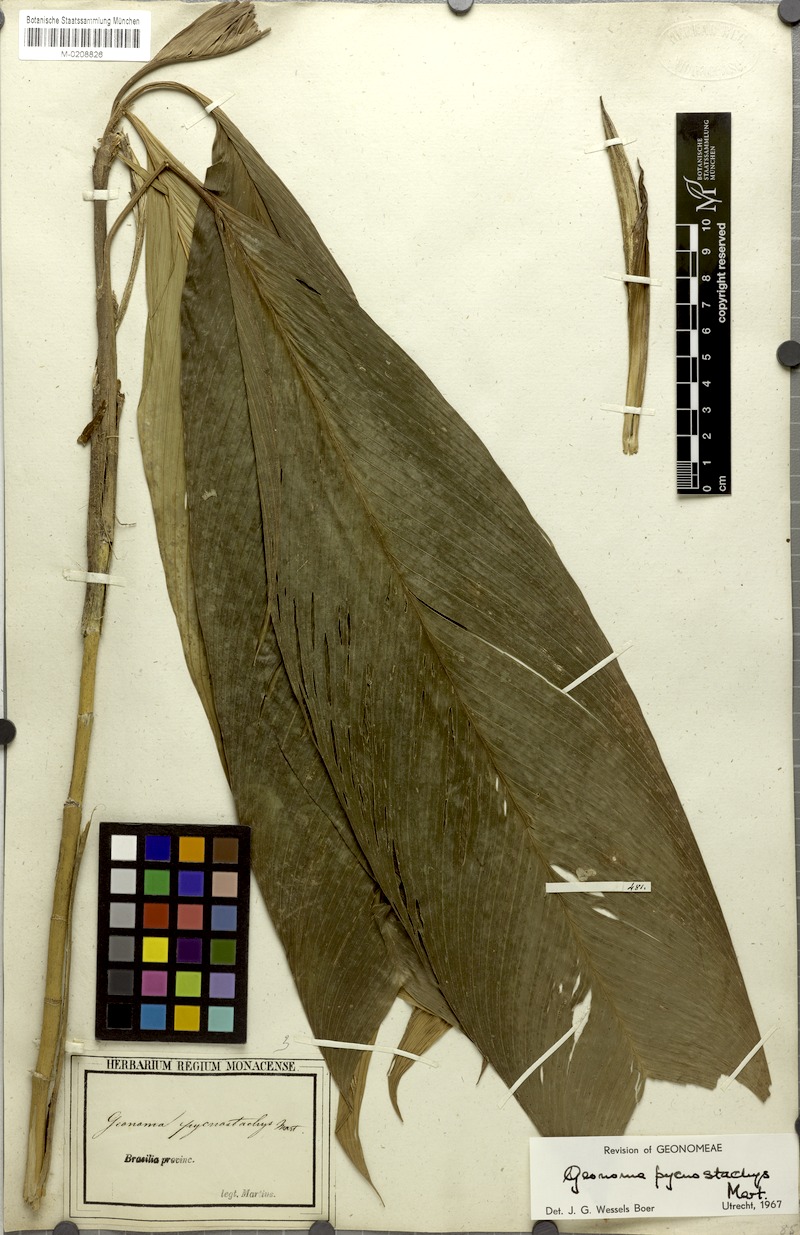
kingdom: Plantae
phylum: Tracheophyta
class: Liliopsida
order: Arecales
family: Arecaceae
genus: Geonoma
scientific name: Geonoma stricta
